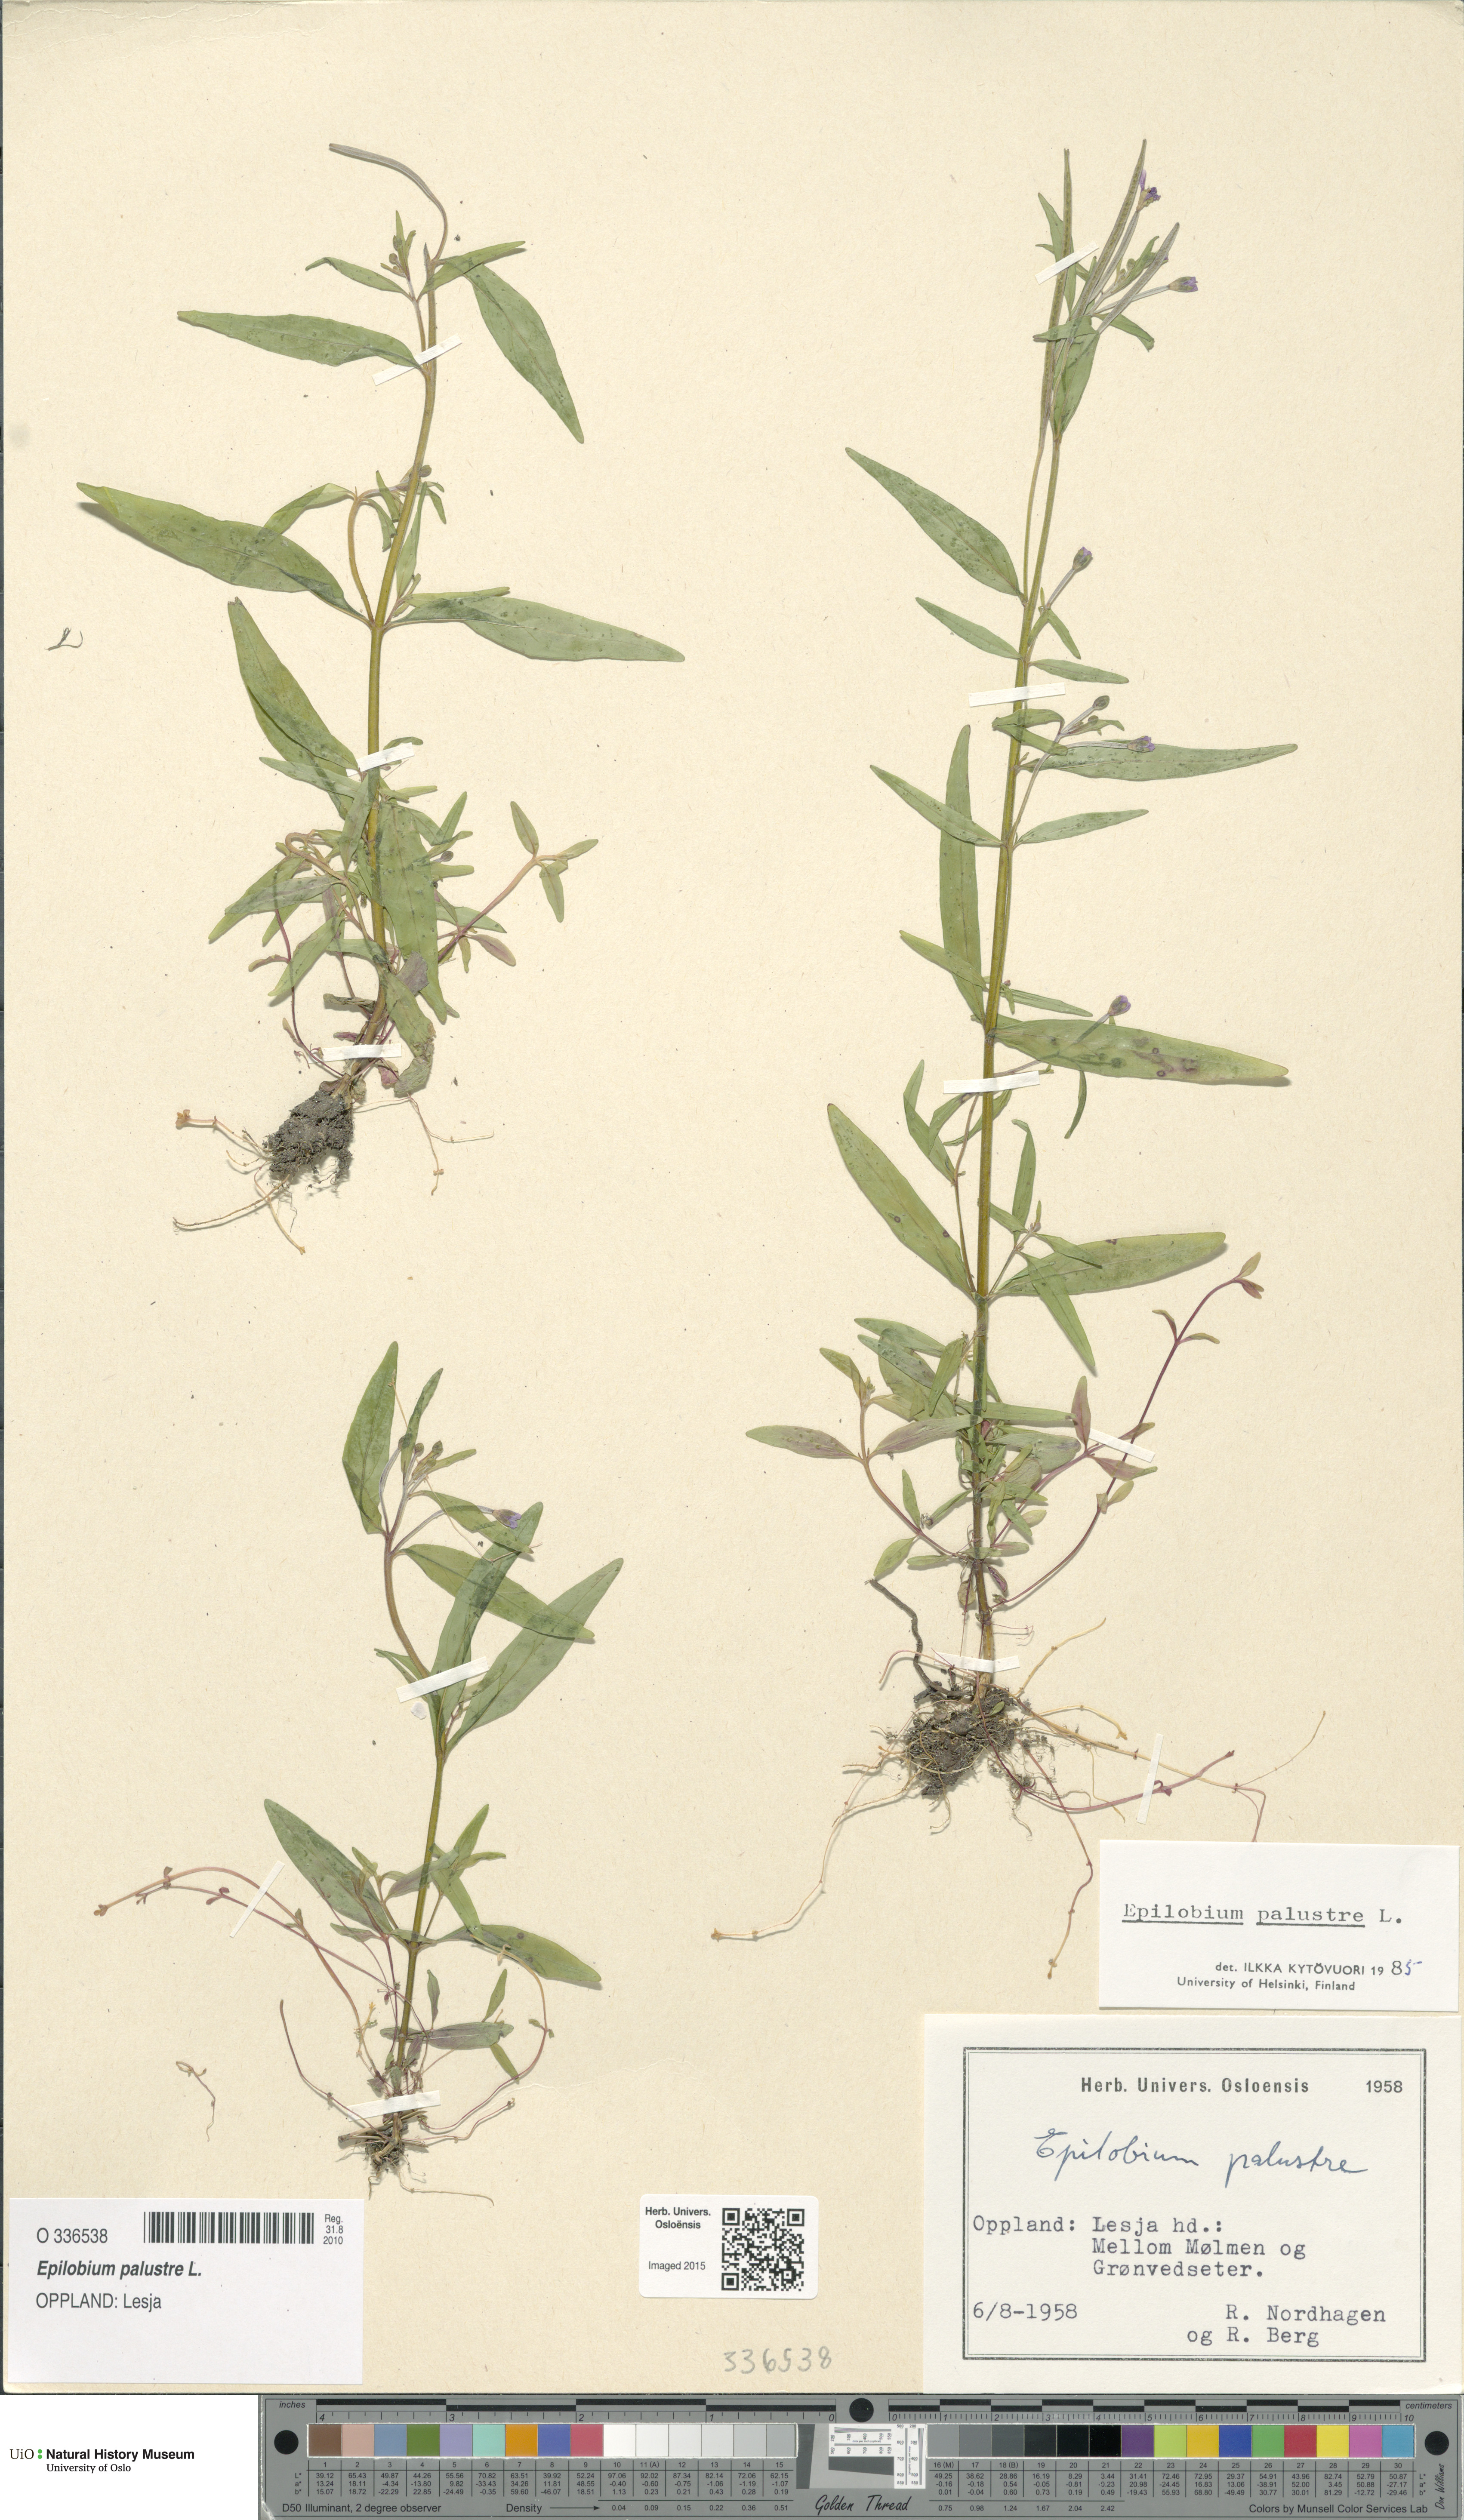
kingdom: Plantae
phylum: Tracheophyta
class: Magnoliopsida
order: Myrtales
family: Onagraceae
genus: Epilobium
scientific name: Epilobium palustre
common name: Marsh willowherb
